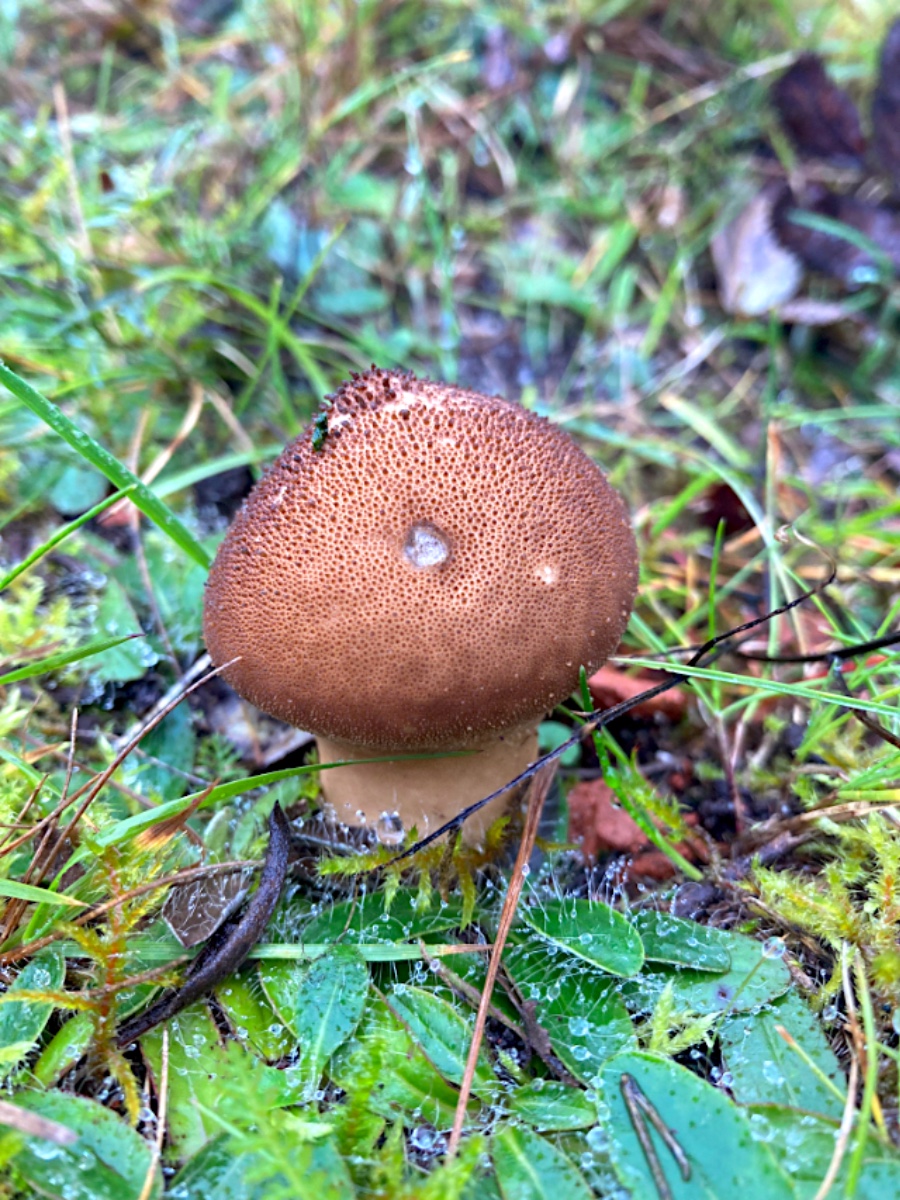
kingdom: Fungi
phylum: Basidiomycota
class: Agaricomycetes
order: Agaricales
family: Lycoperdaceae
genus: Lycoperdon
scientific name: Lycoperdon nigrescens
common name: sortagtig støvbold
